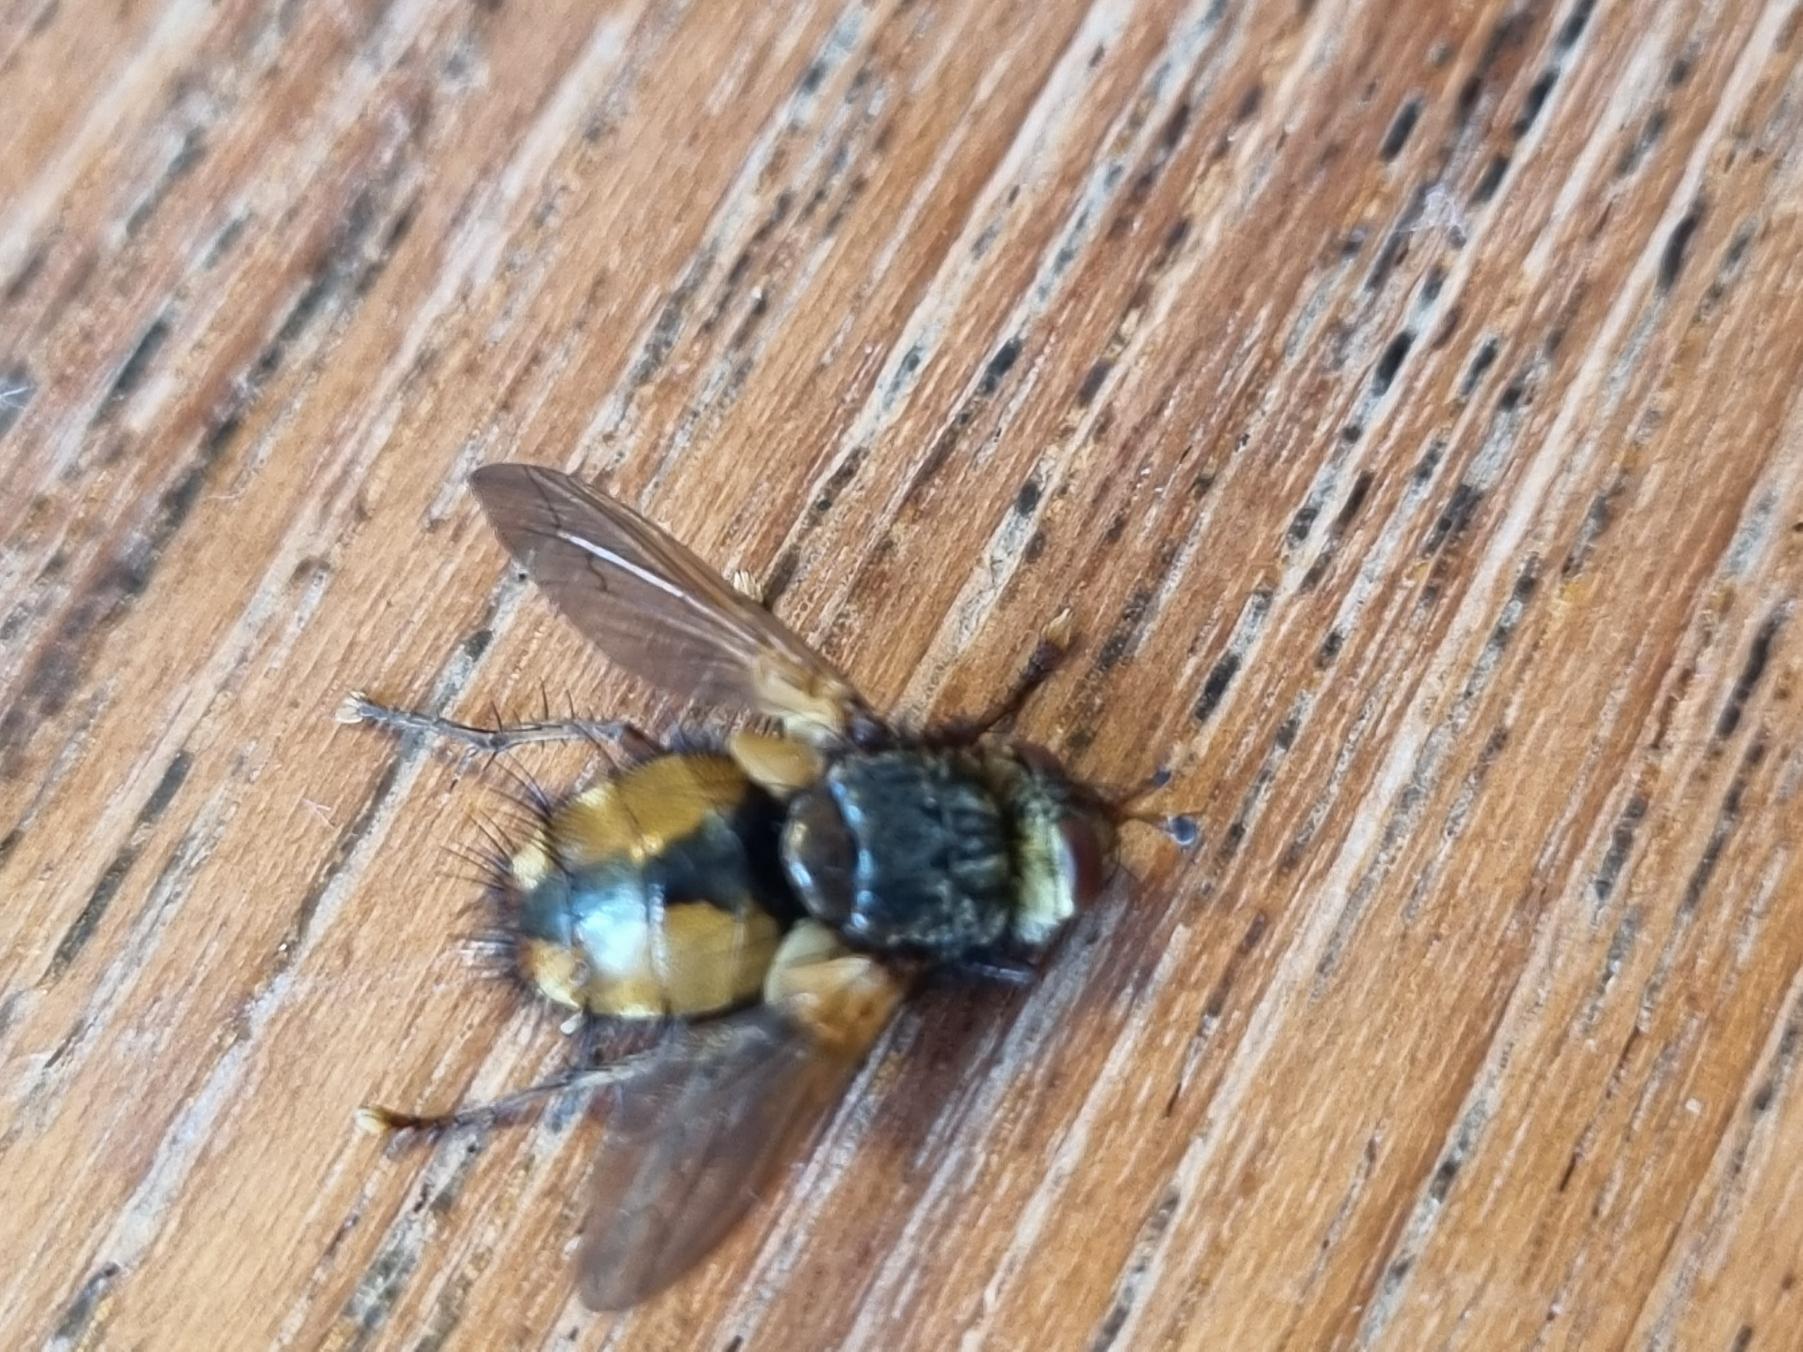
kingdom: Animalia
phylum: Arthropoda
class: Insecta
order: Diptera
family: Tachinidae
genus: Tachina
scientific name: Tachina fera
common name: Mellemfluen oskar
